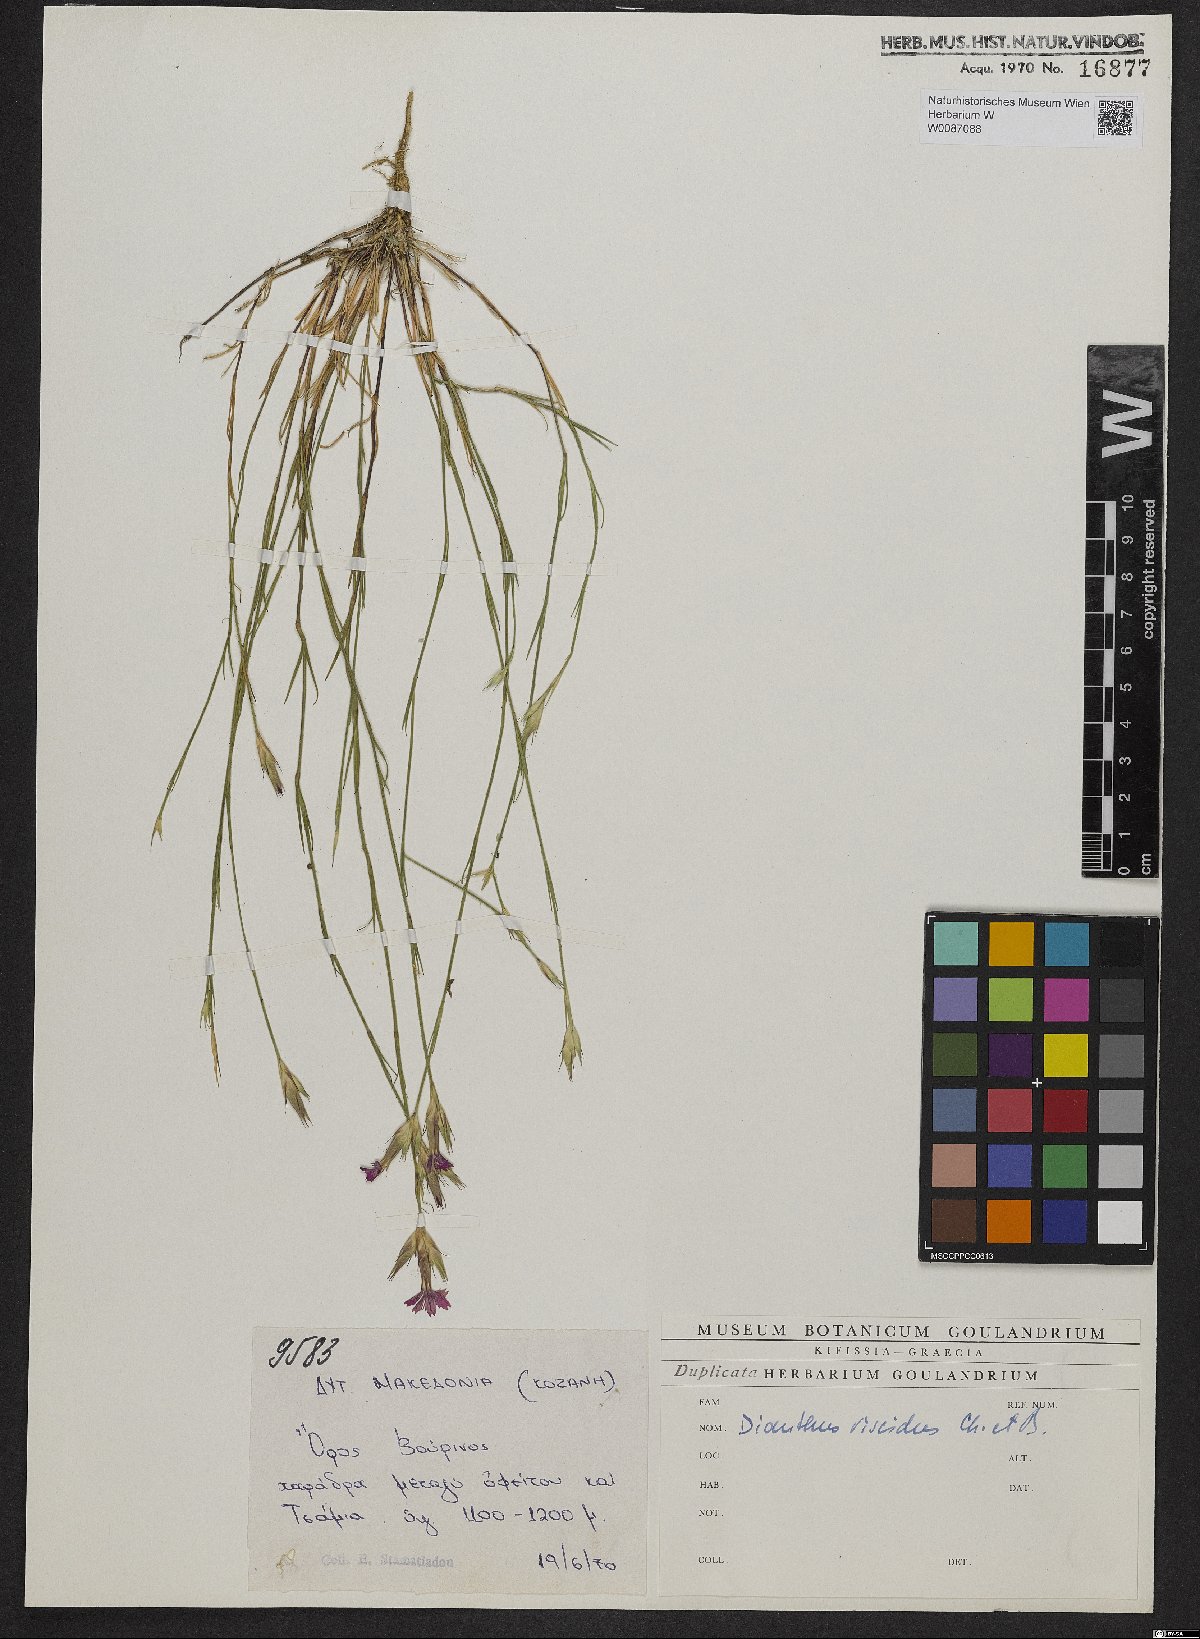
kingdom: Plantae
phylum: Tracheophyta
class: Magnoliopsida
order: Caryophyllales
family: Caryophyllaceae
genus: Dianthus
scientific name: Dianthus viscidus
